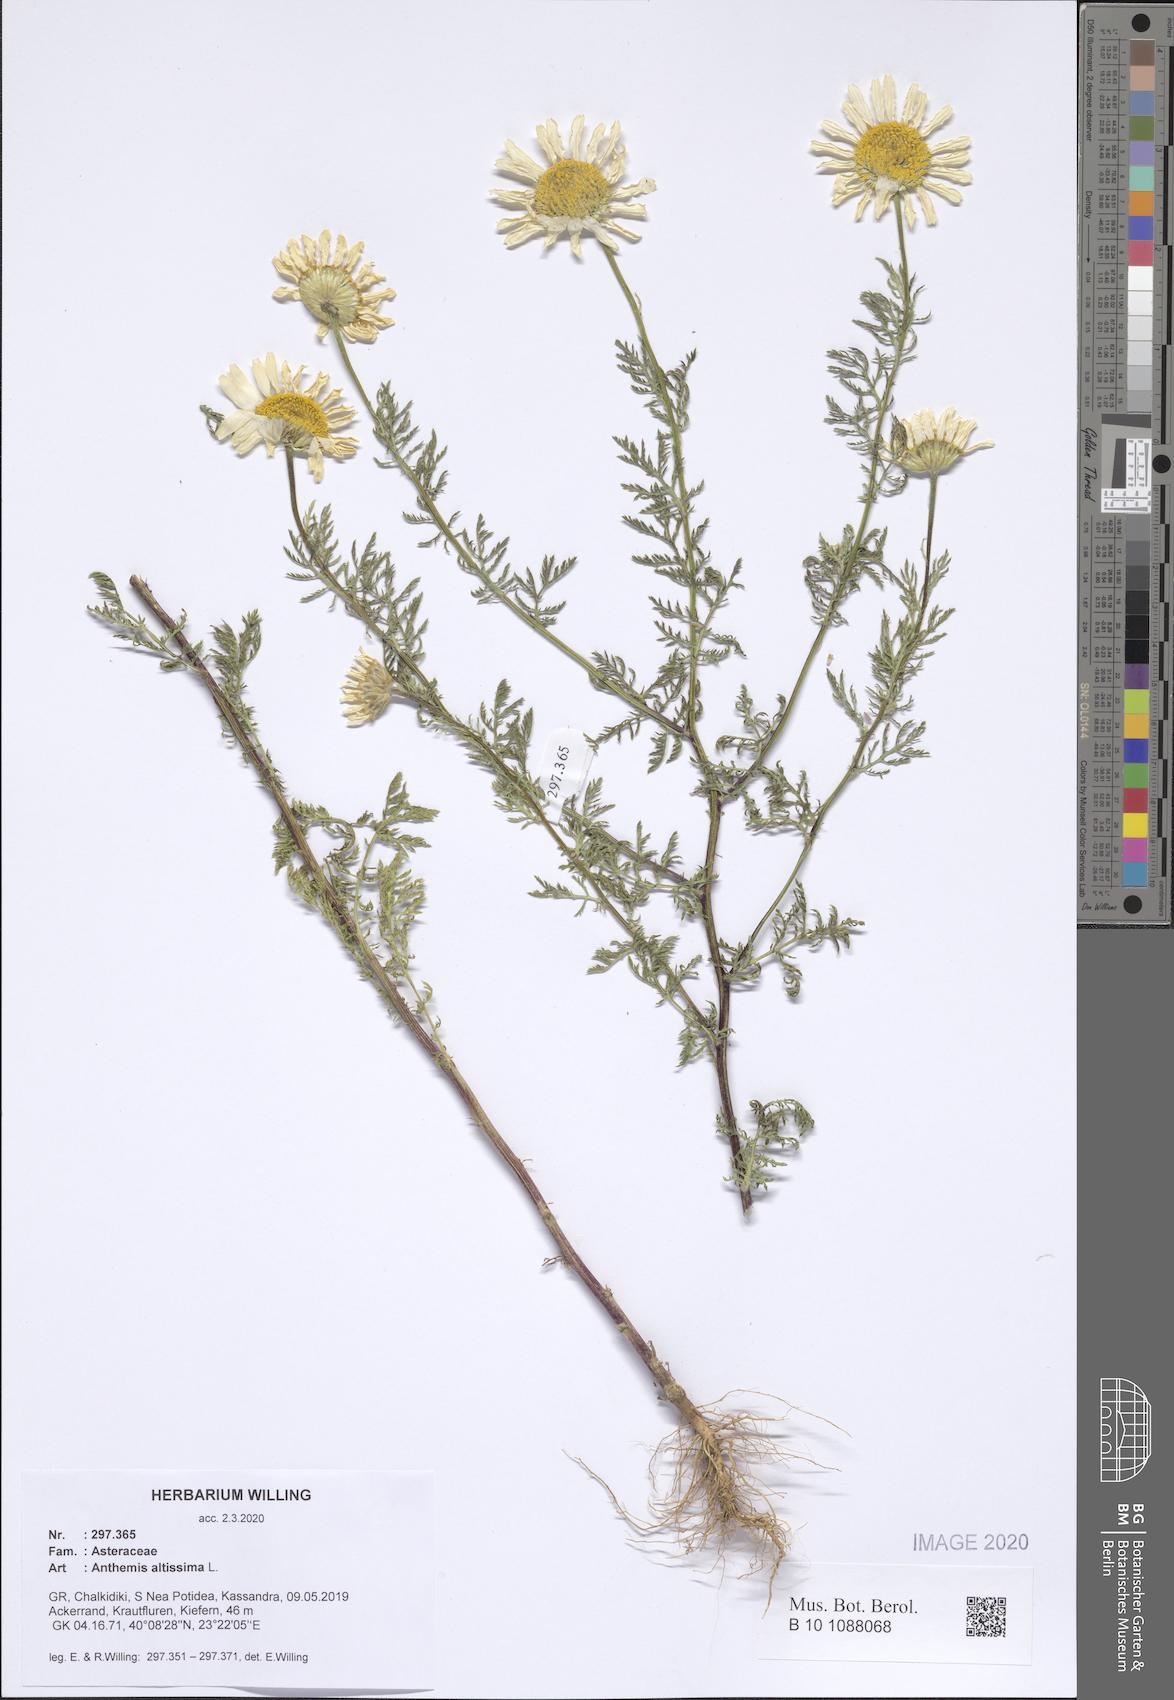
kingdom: Plantae
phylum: Tracheophyta
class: Magnoliopsida
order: Asterales
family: Asteraceae
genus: Cota
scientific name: Cota altissima
